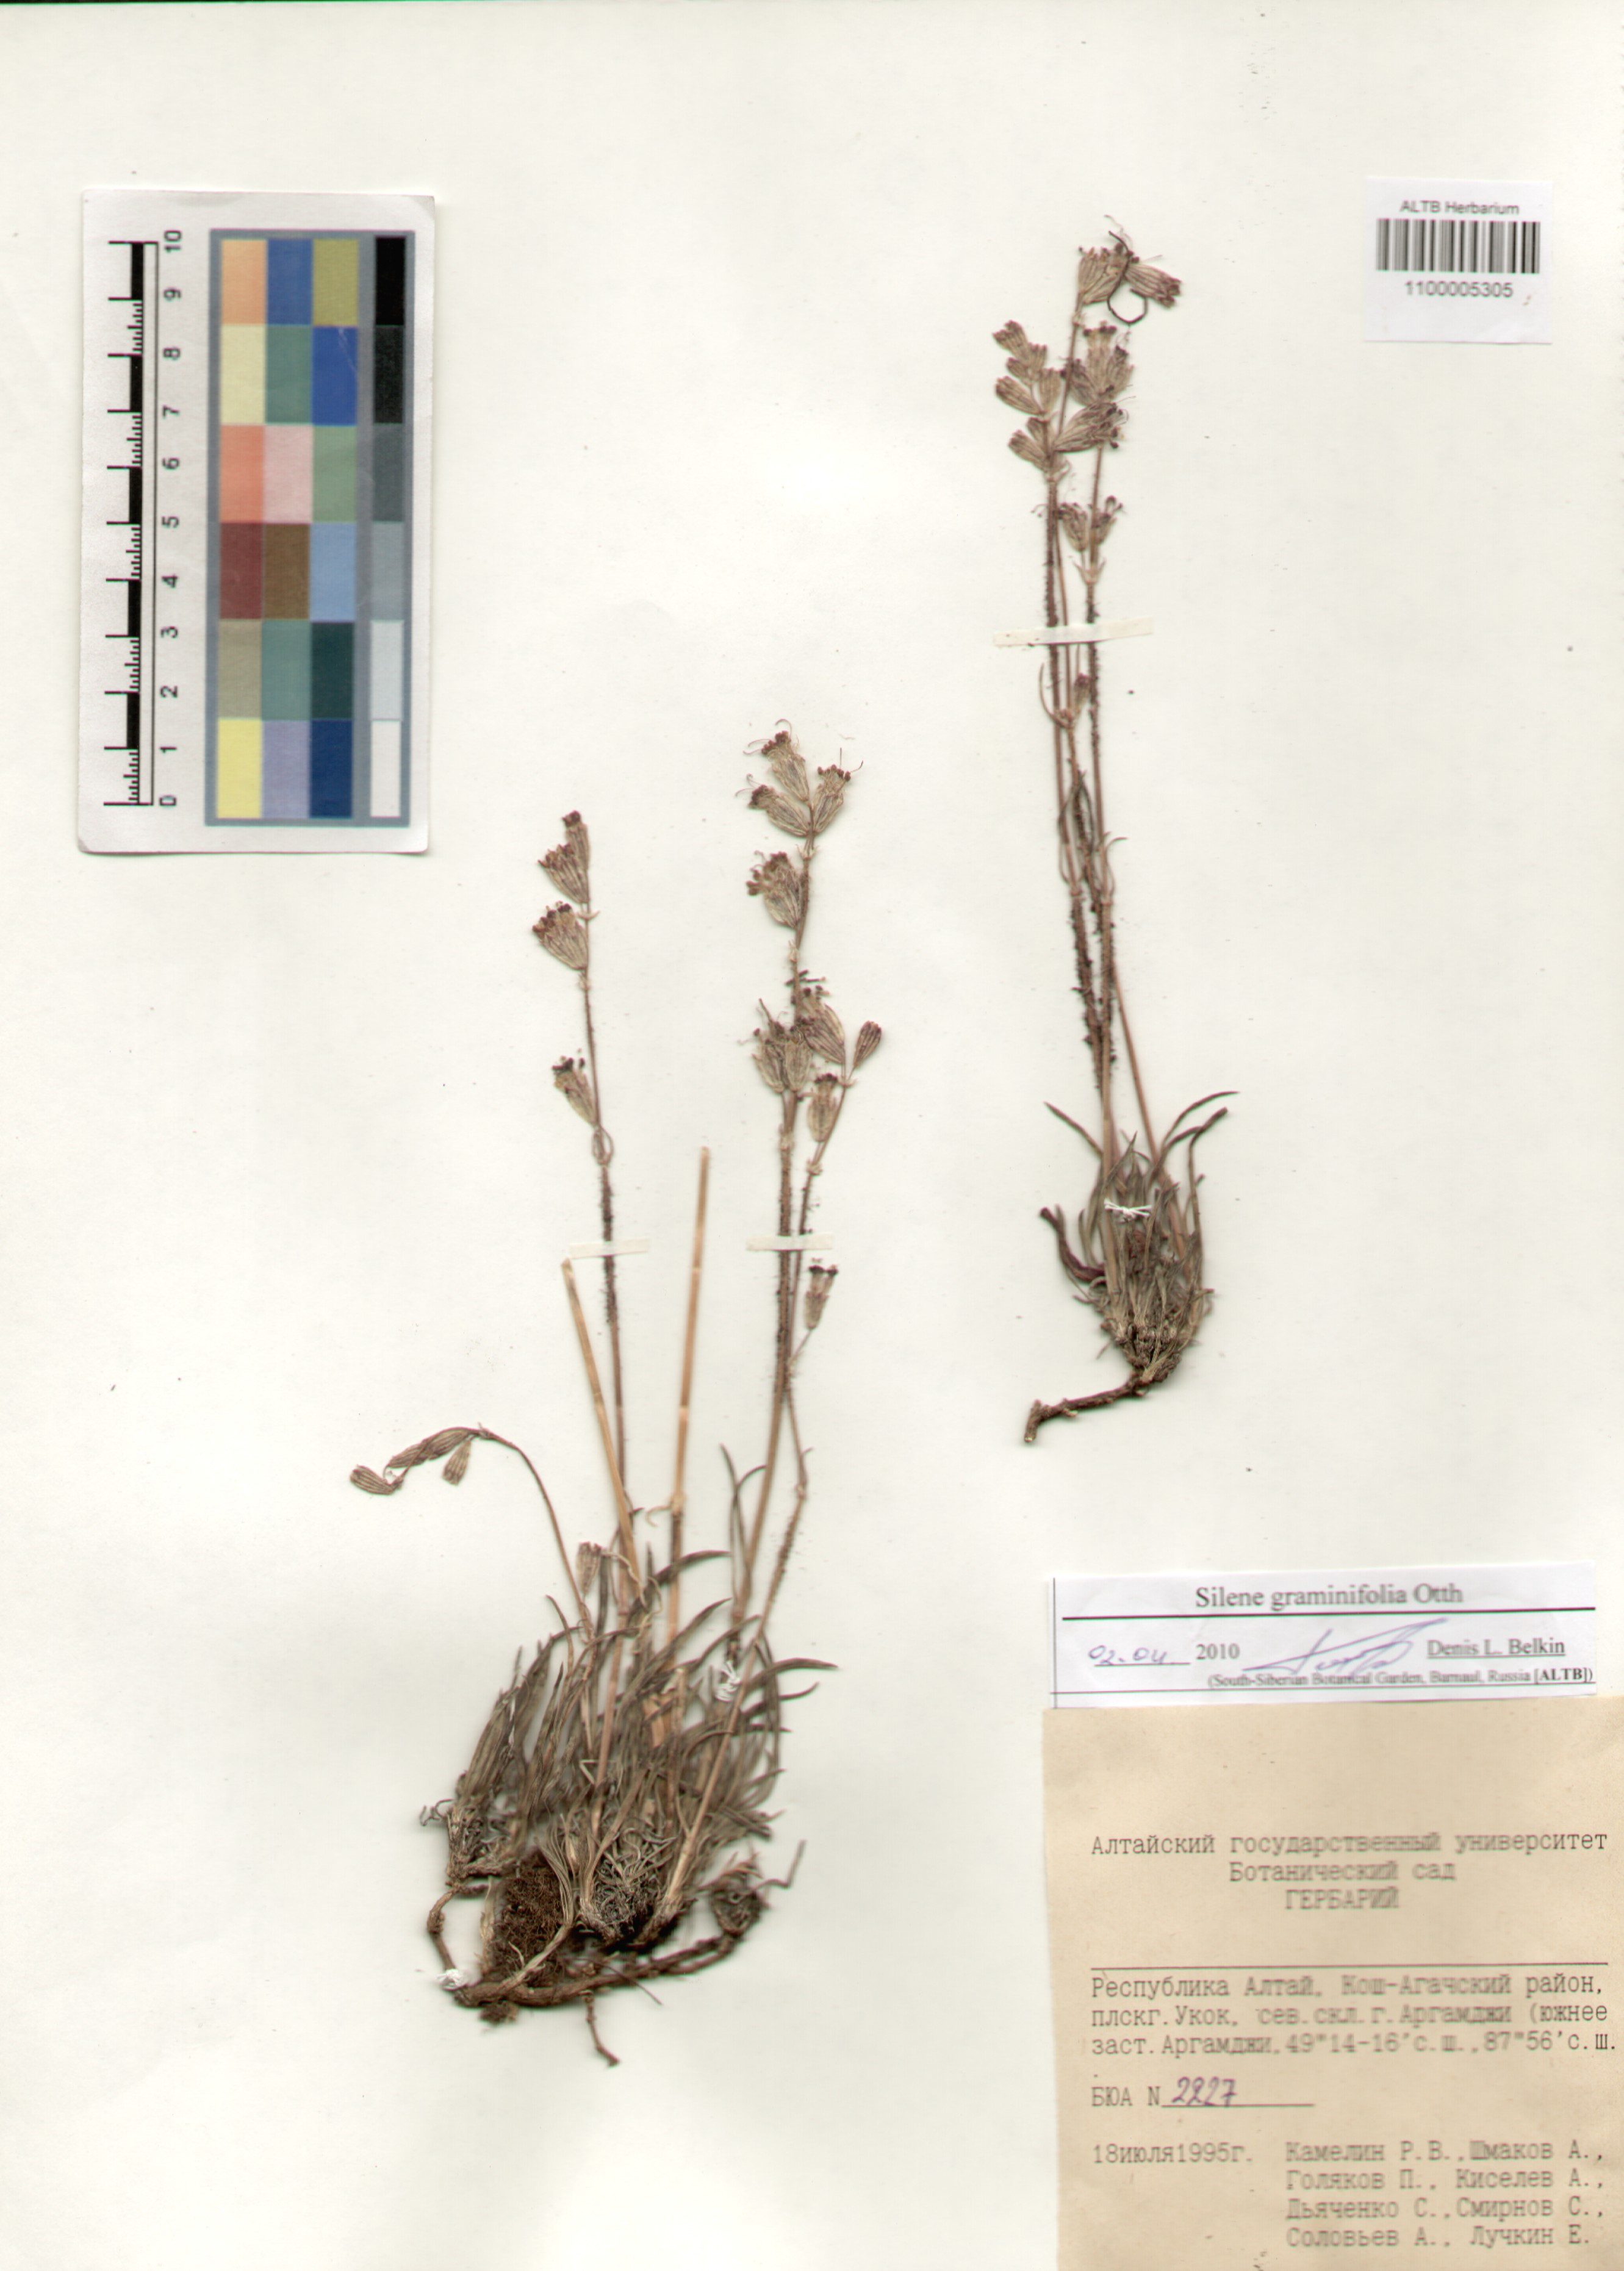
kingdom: Plantae
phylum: Tracheophyta
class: Magnoliopsida
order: Caryophyllales
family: Caryophyllaceae
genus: Silene
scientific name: Silene graminifolia
